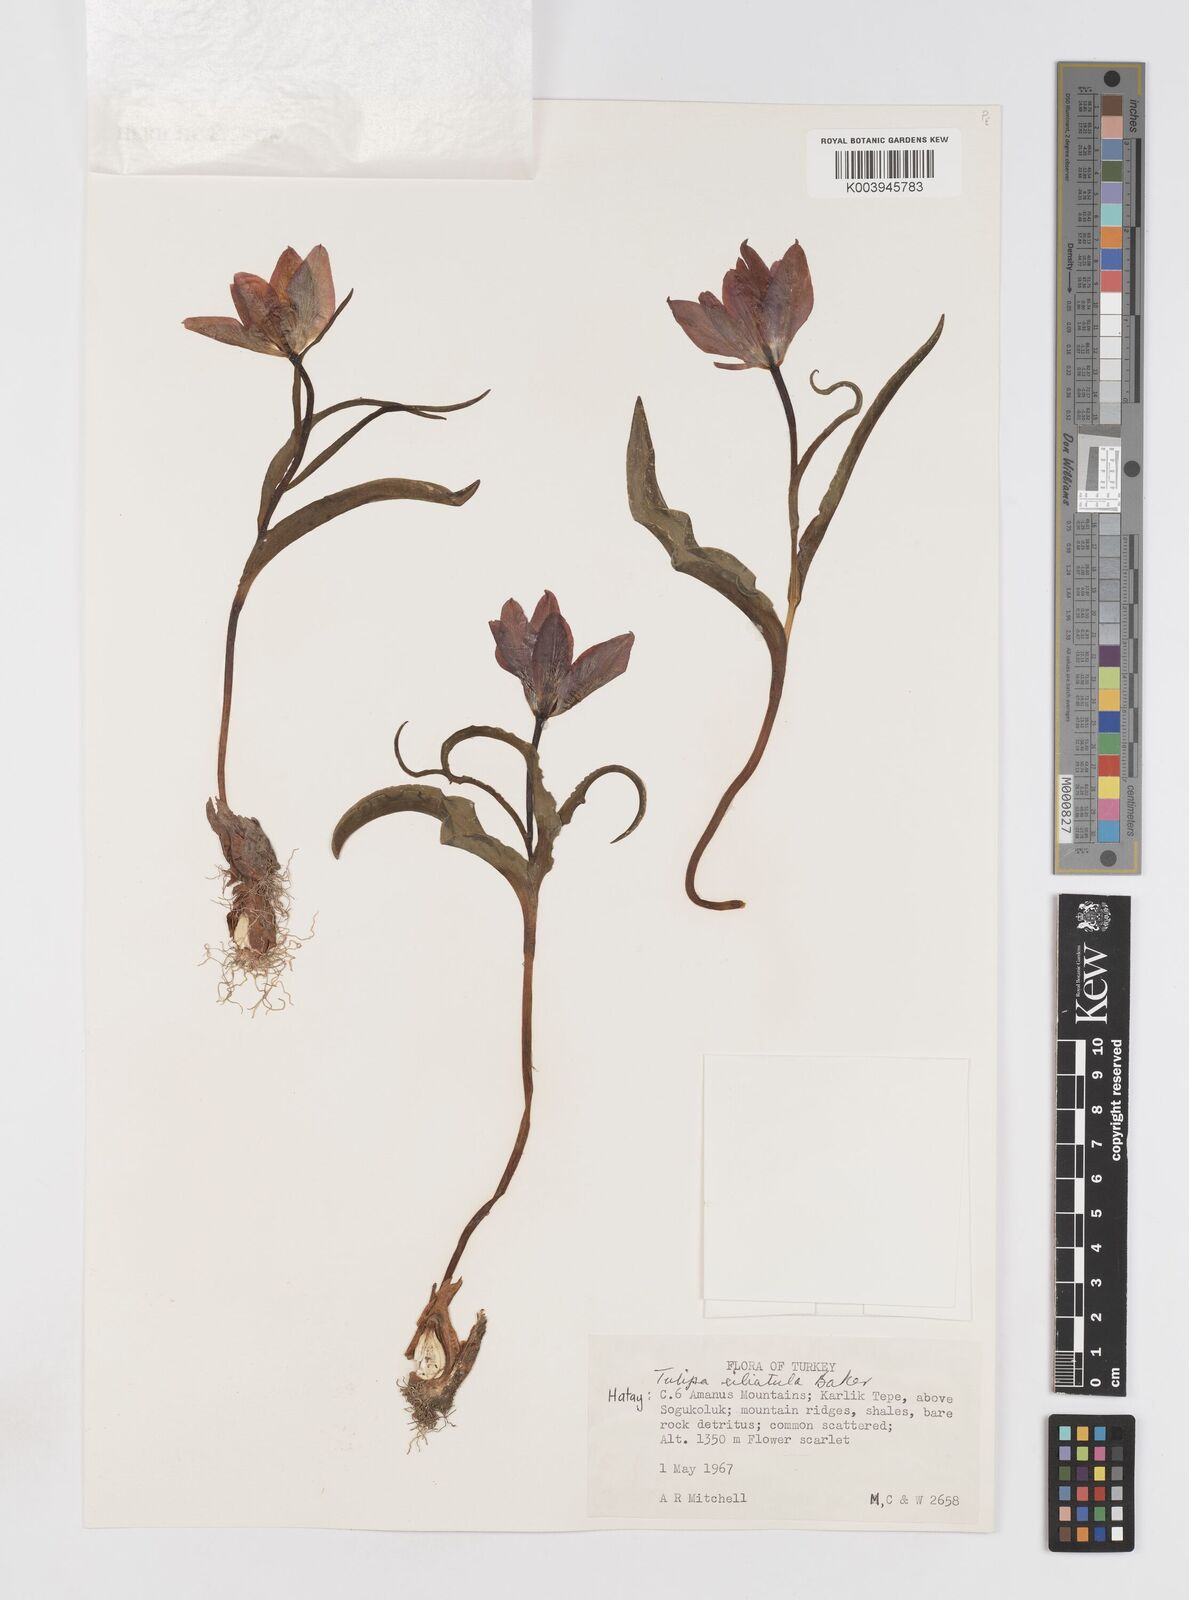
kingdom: Plantae
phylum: Tracheophyta
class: Liliopsida
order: Liliales
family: Liliaceae
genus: Tulipa
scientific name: Tulipa foliosa
